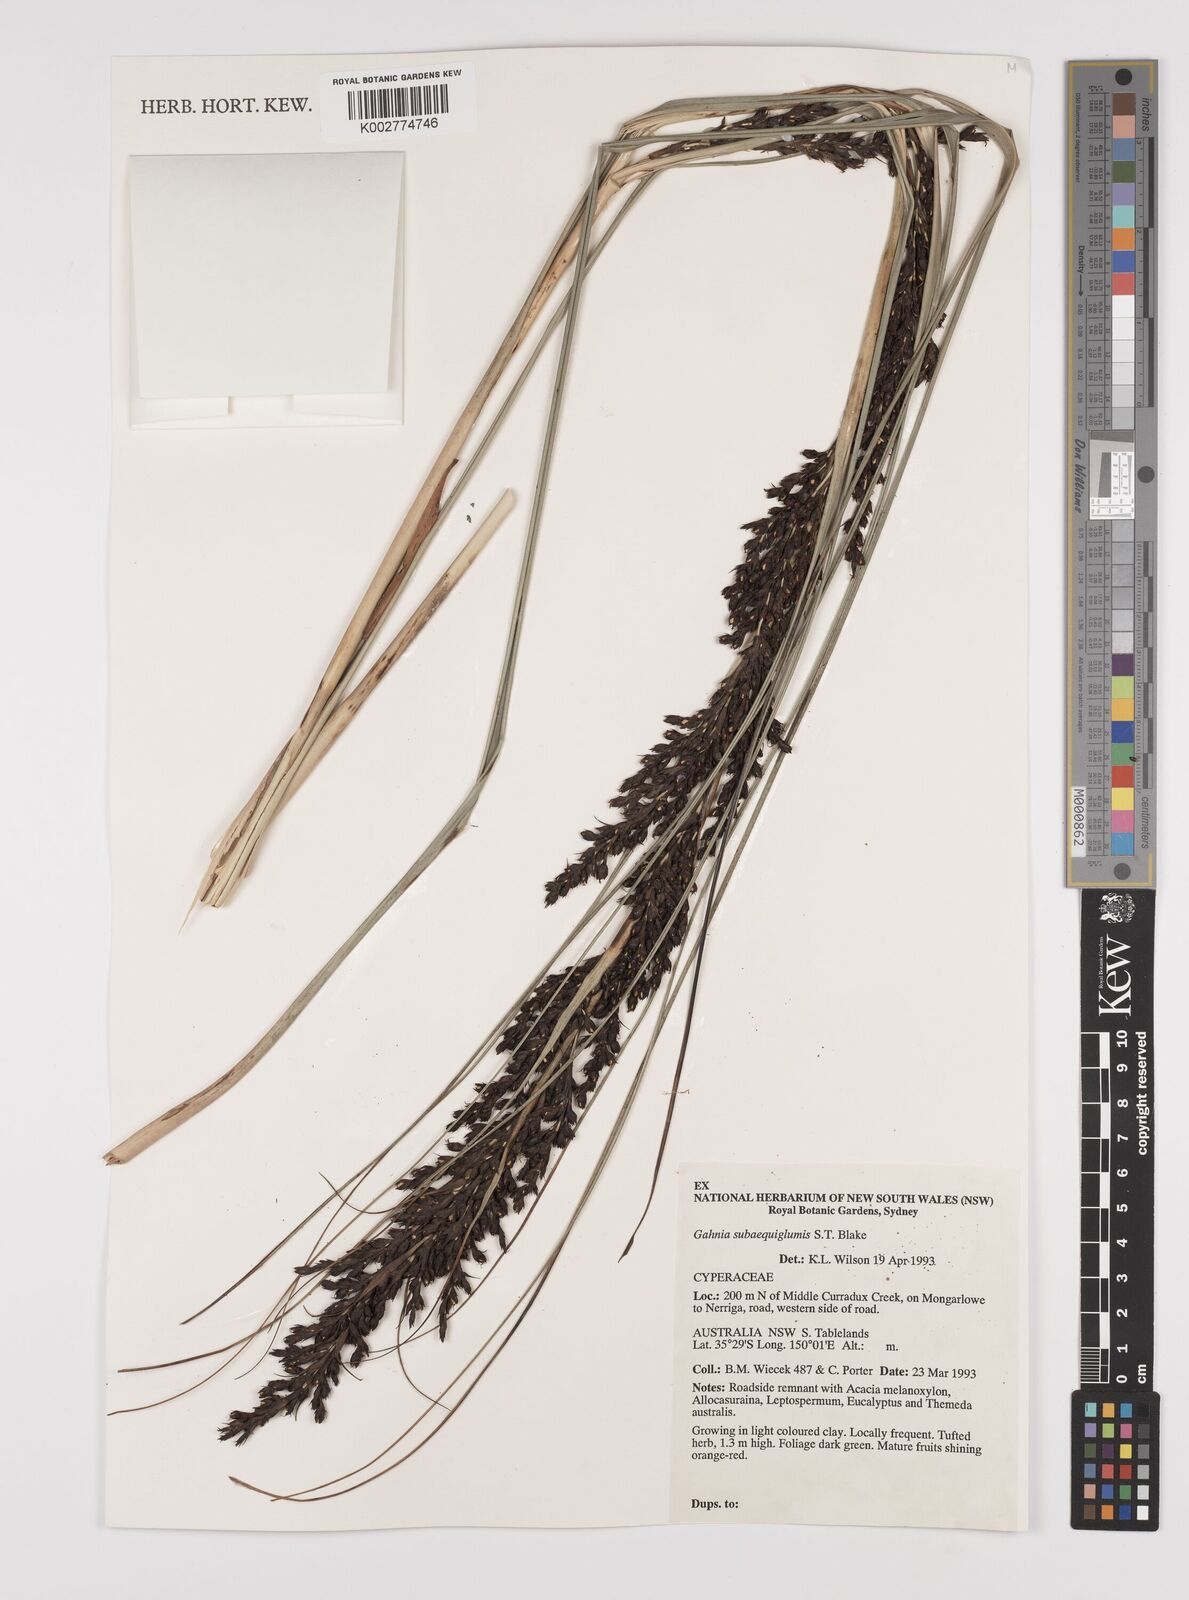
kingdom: Plantae
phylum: Tracheophyta
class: Liliopsida
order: Poales
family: Cyperaceae
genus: Gahnia
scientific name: Gahnia subaequiglumis
